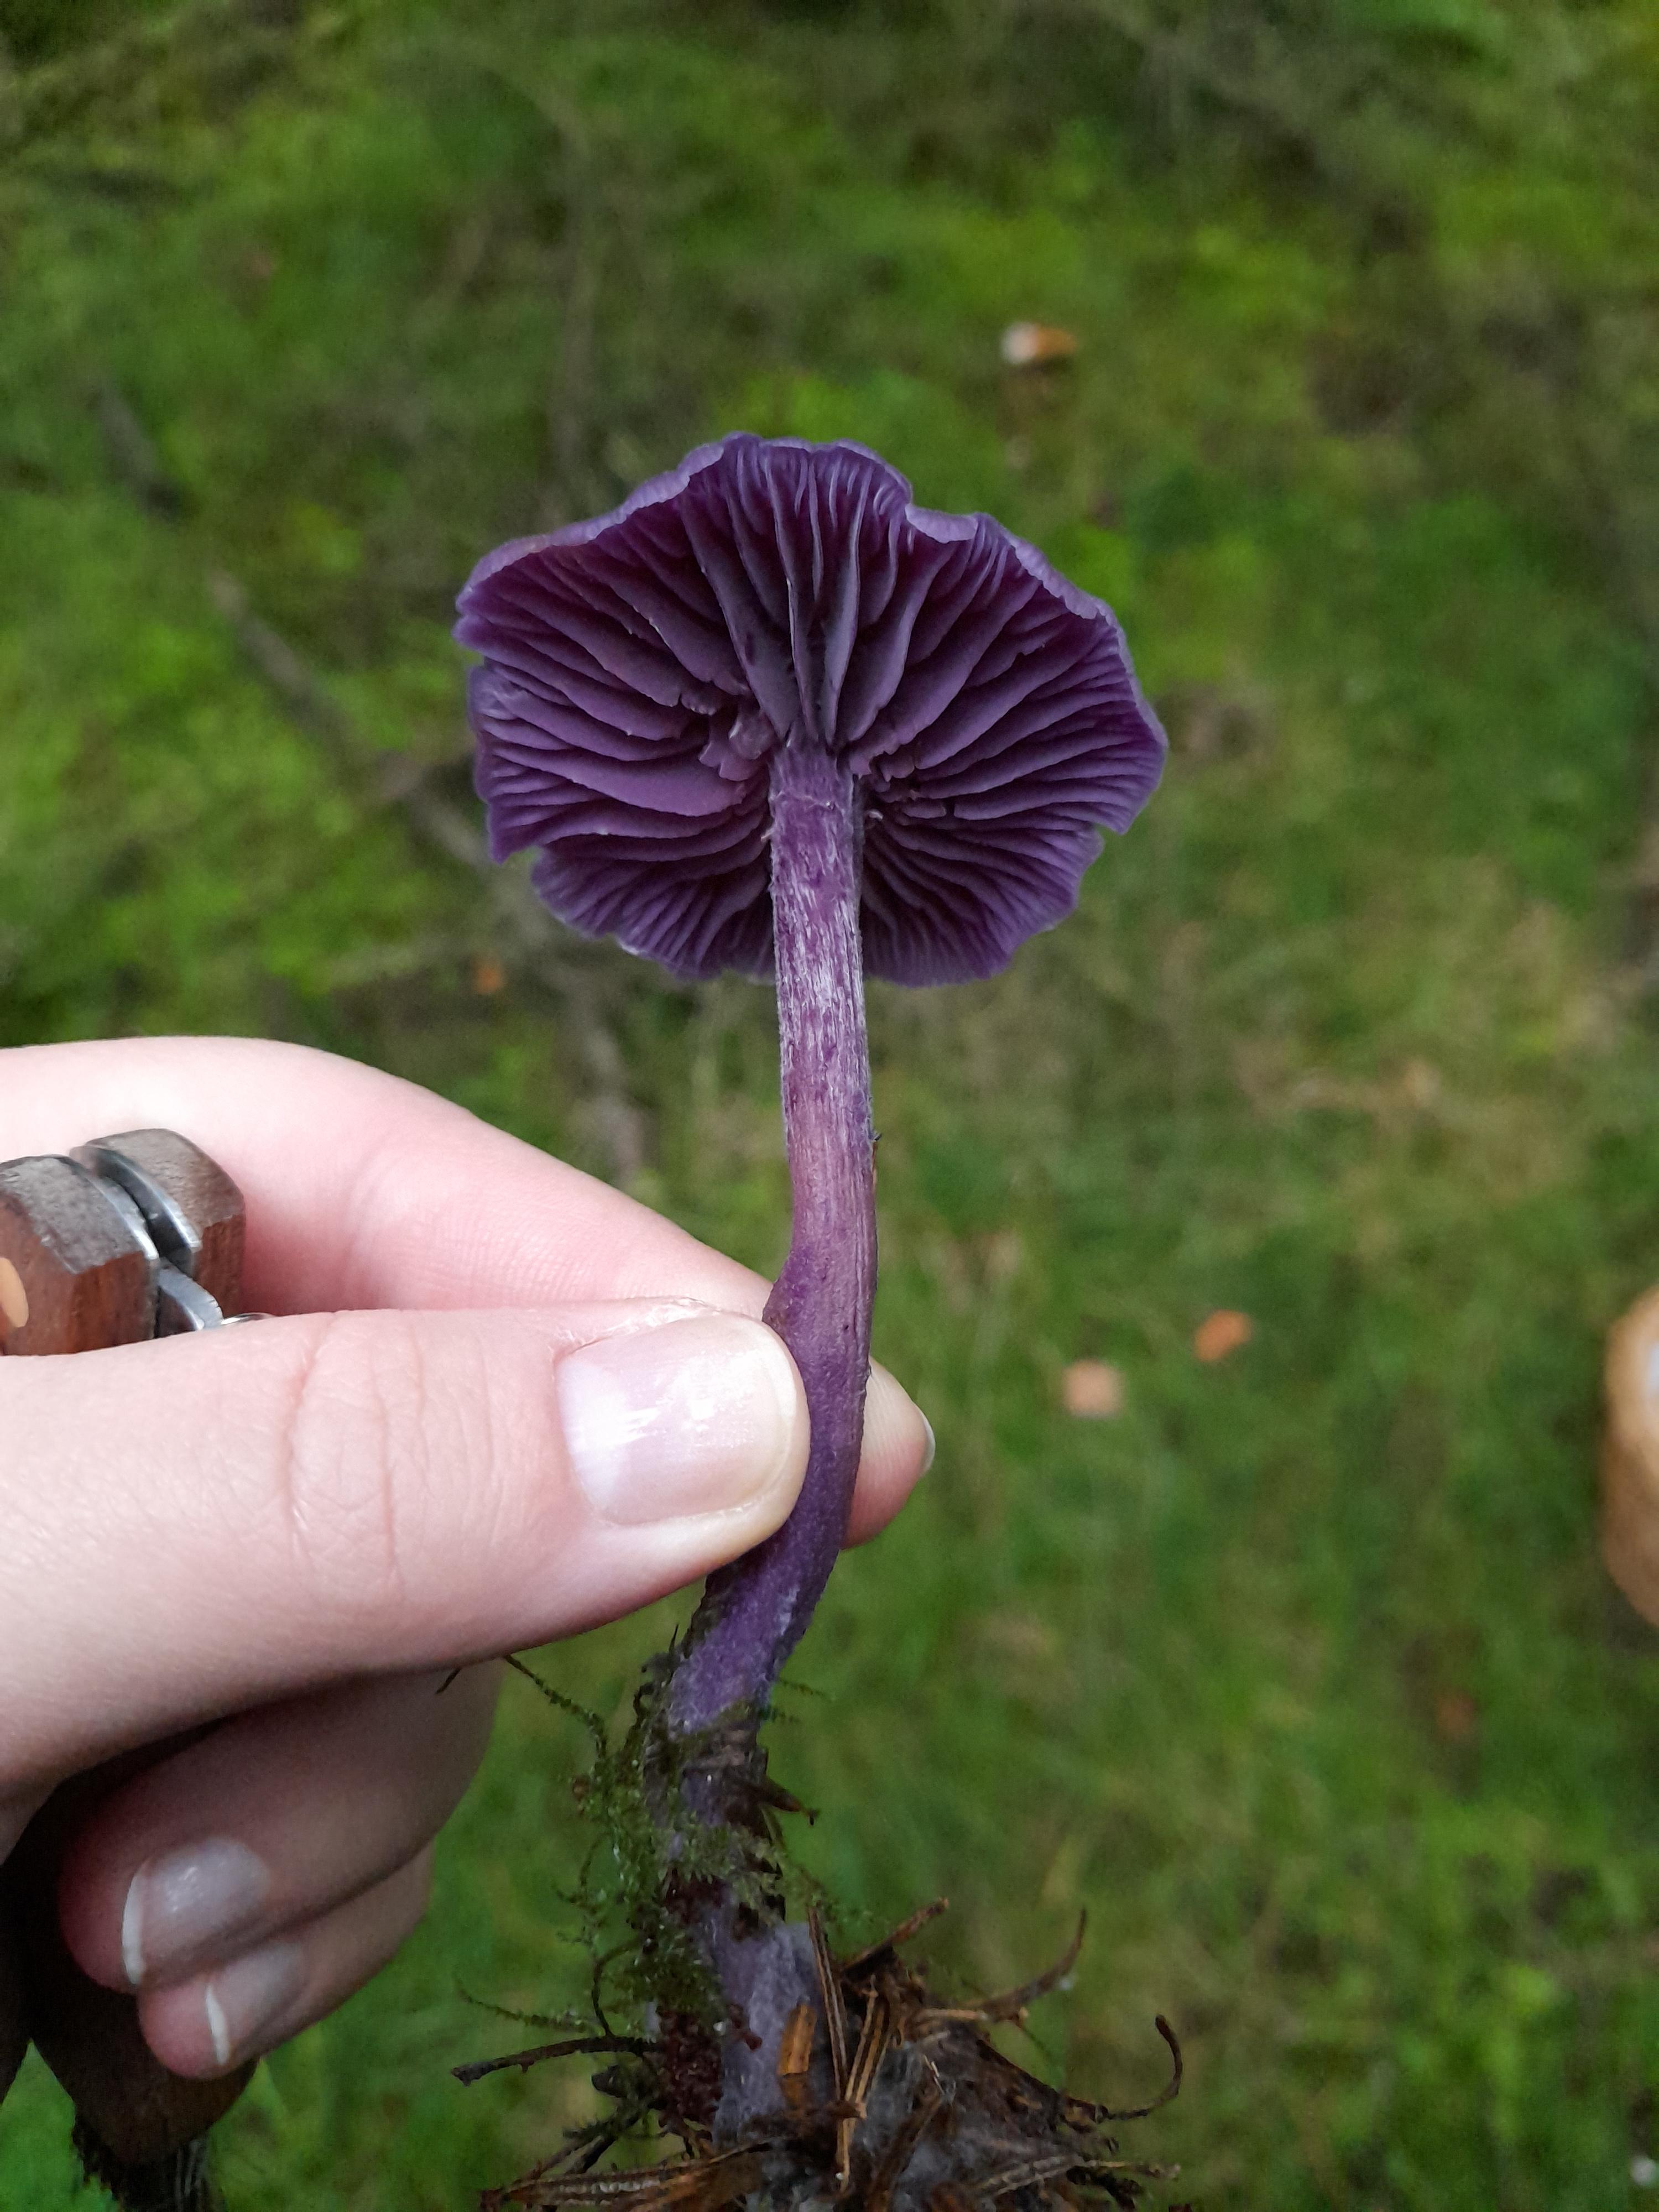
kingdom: Fungi
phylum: Basidiomycota
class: Agaricomycetes
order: Agaricales
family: Hydnangiaceae
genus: Laccaria
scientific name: Laccaria amethystina
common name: violet ametysthat
